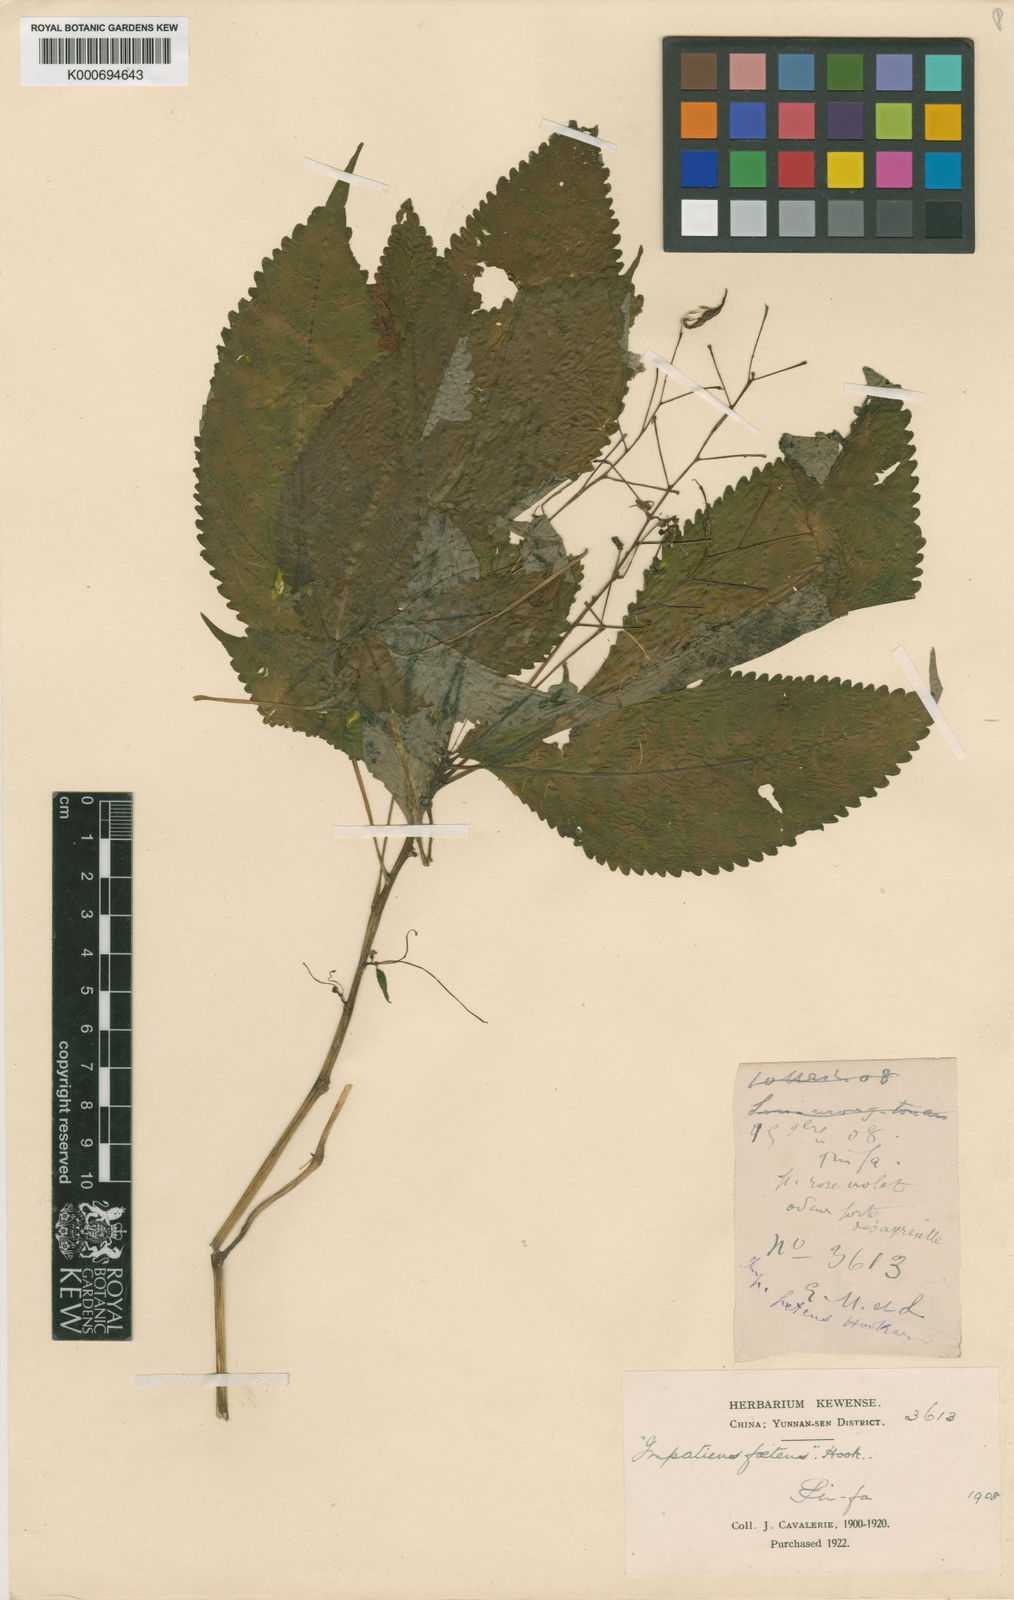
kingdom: Plantae
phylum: Tracheophyta
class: Magnoliopsida
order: Ericales
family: Balsaminaceae
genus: Impatiens
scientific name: Impatiens
